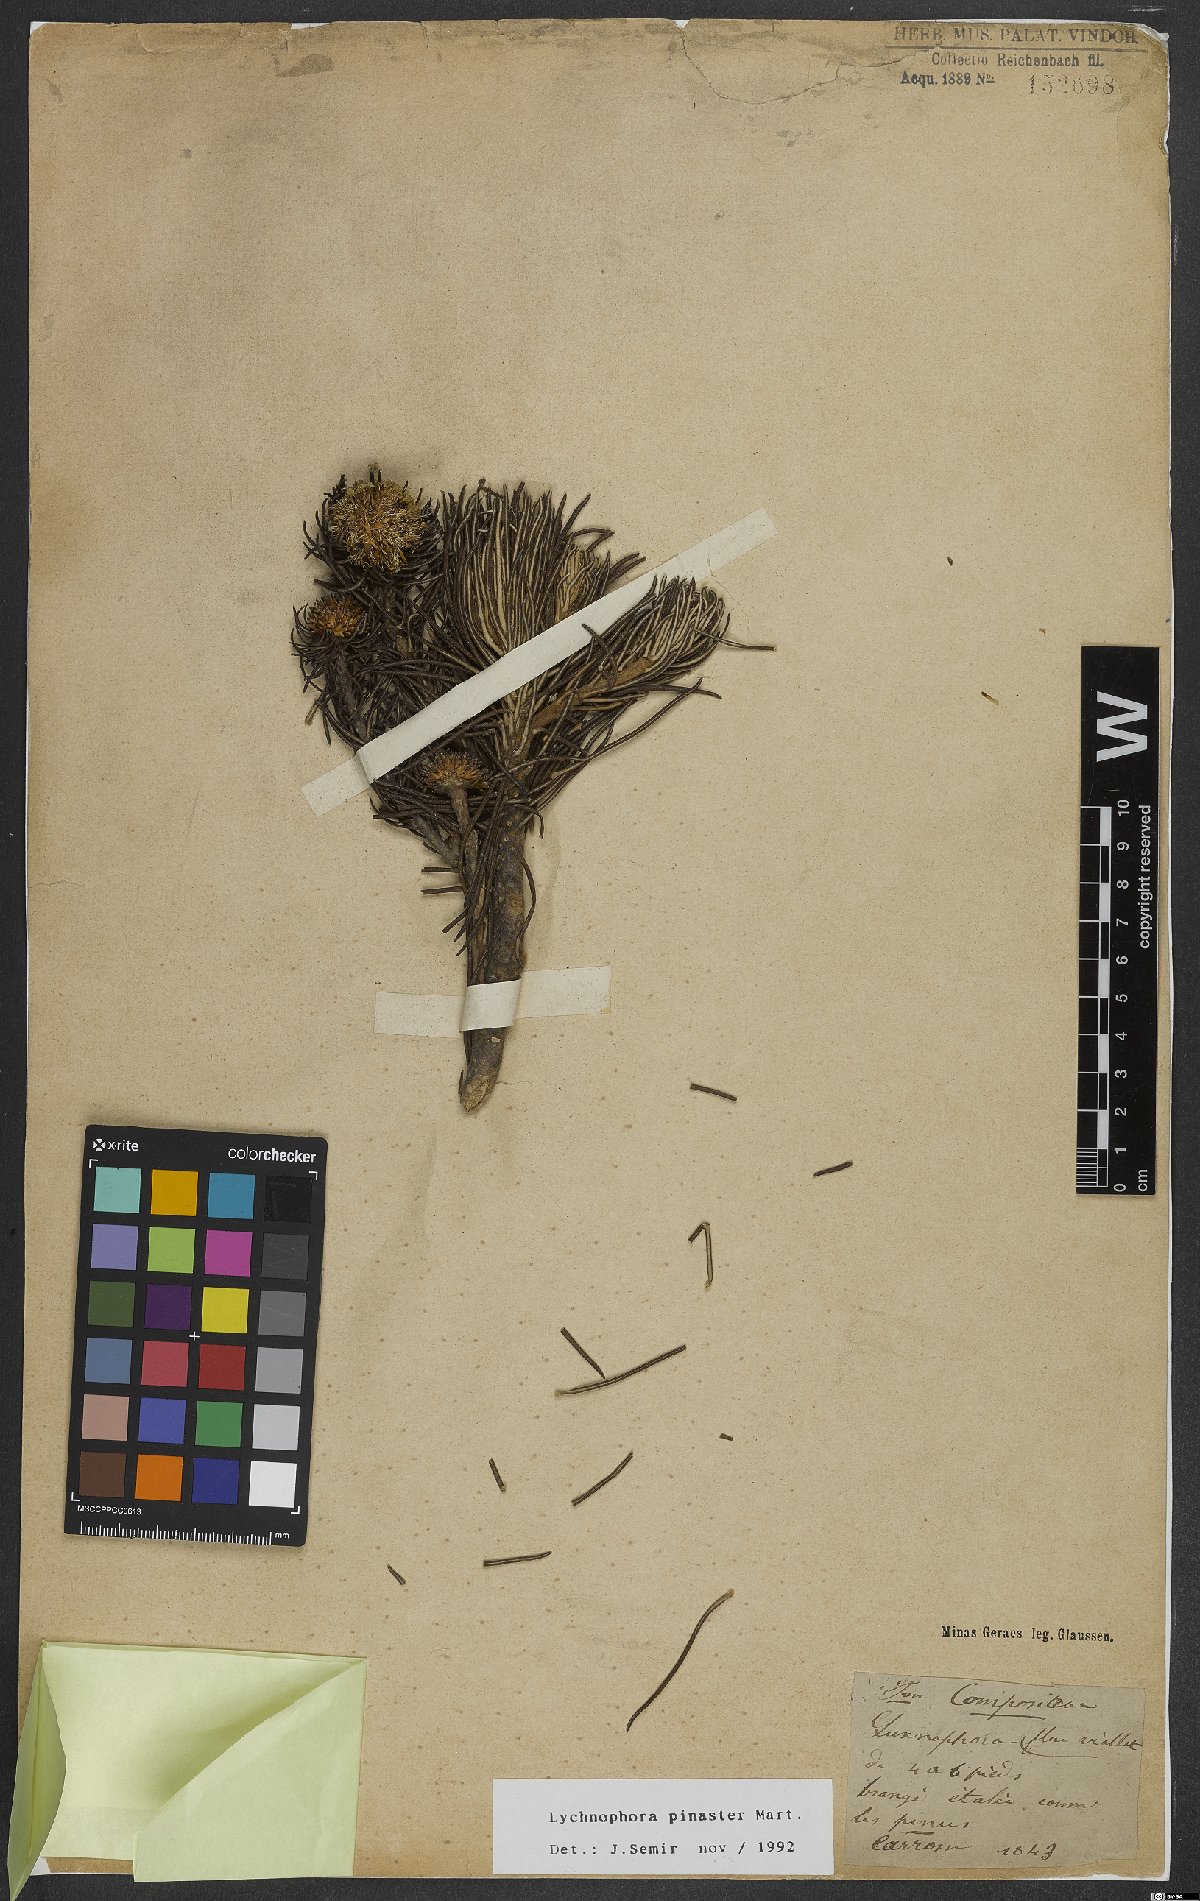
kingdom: Plantae
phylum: Tracheophyta
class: Magnoliopsida
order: Asterales
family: Asteraceae
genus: Lychnophora
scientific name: Lychnophora pinaster
